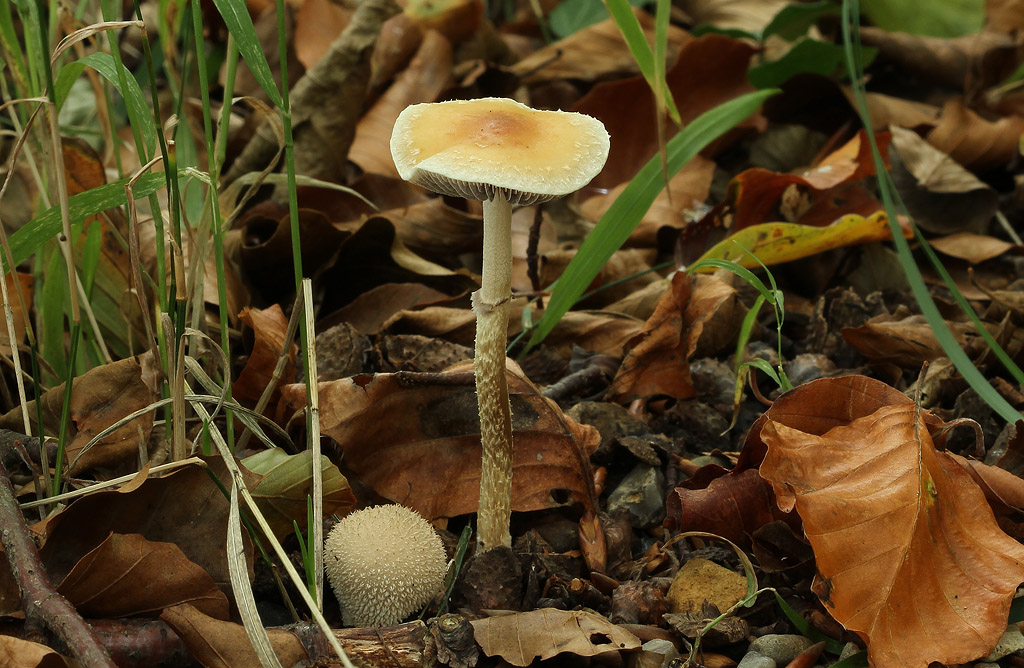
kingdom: Fungi
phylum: Basidiomycota
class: Agaricomycetes
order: Agaricales
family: Strophariaceae
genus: Leratiomyces
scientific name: Leratiomyces squamosus
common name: skællet bredblad
